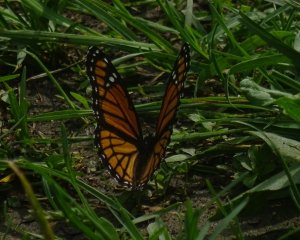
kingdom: Animalia
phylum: Arthropoda
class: Insecta
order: Lepidoptera
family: Nymphalidae
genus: Limenitis
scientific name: Limenitis archippus
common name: Viceroy
